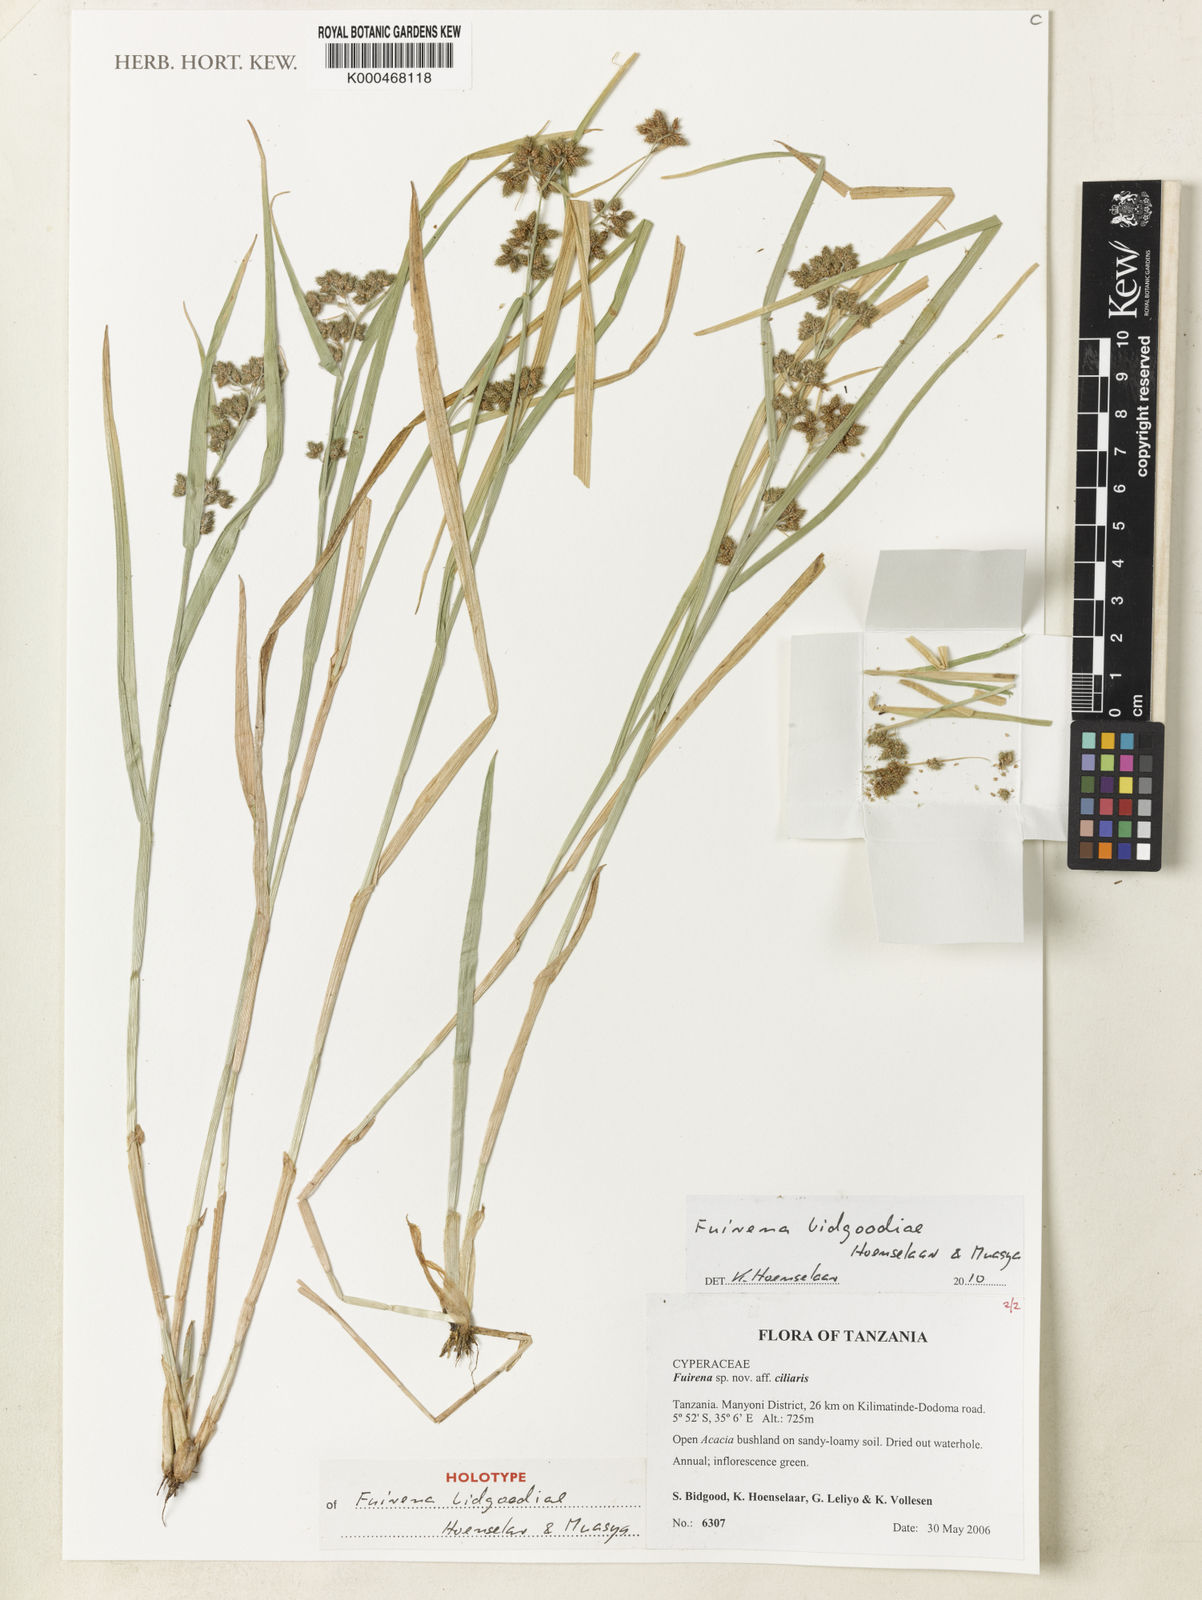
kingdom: Plantae
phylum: Tracheophyta
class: Liliopsida
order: Poales
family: Cyperaceae
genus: Fuirena
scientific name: Fuirena bidgoodiae
